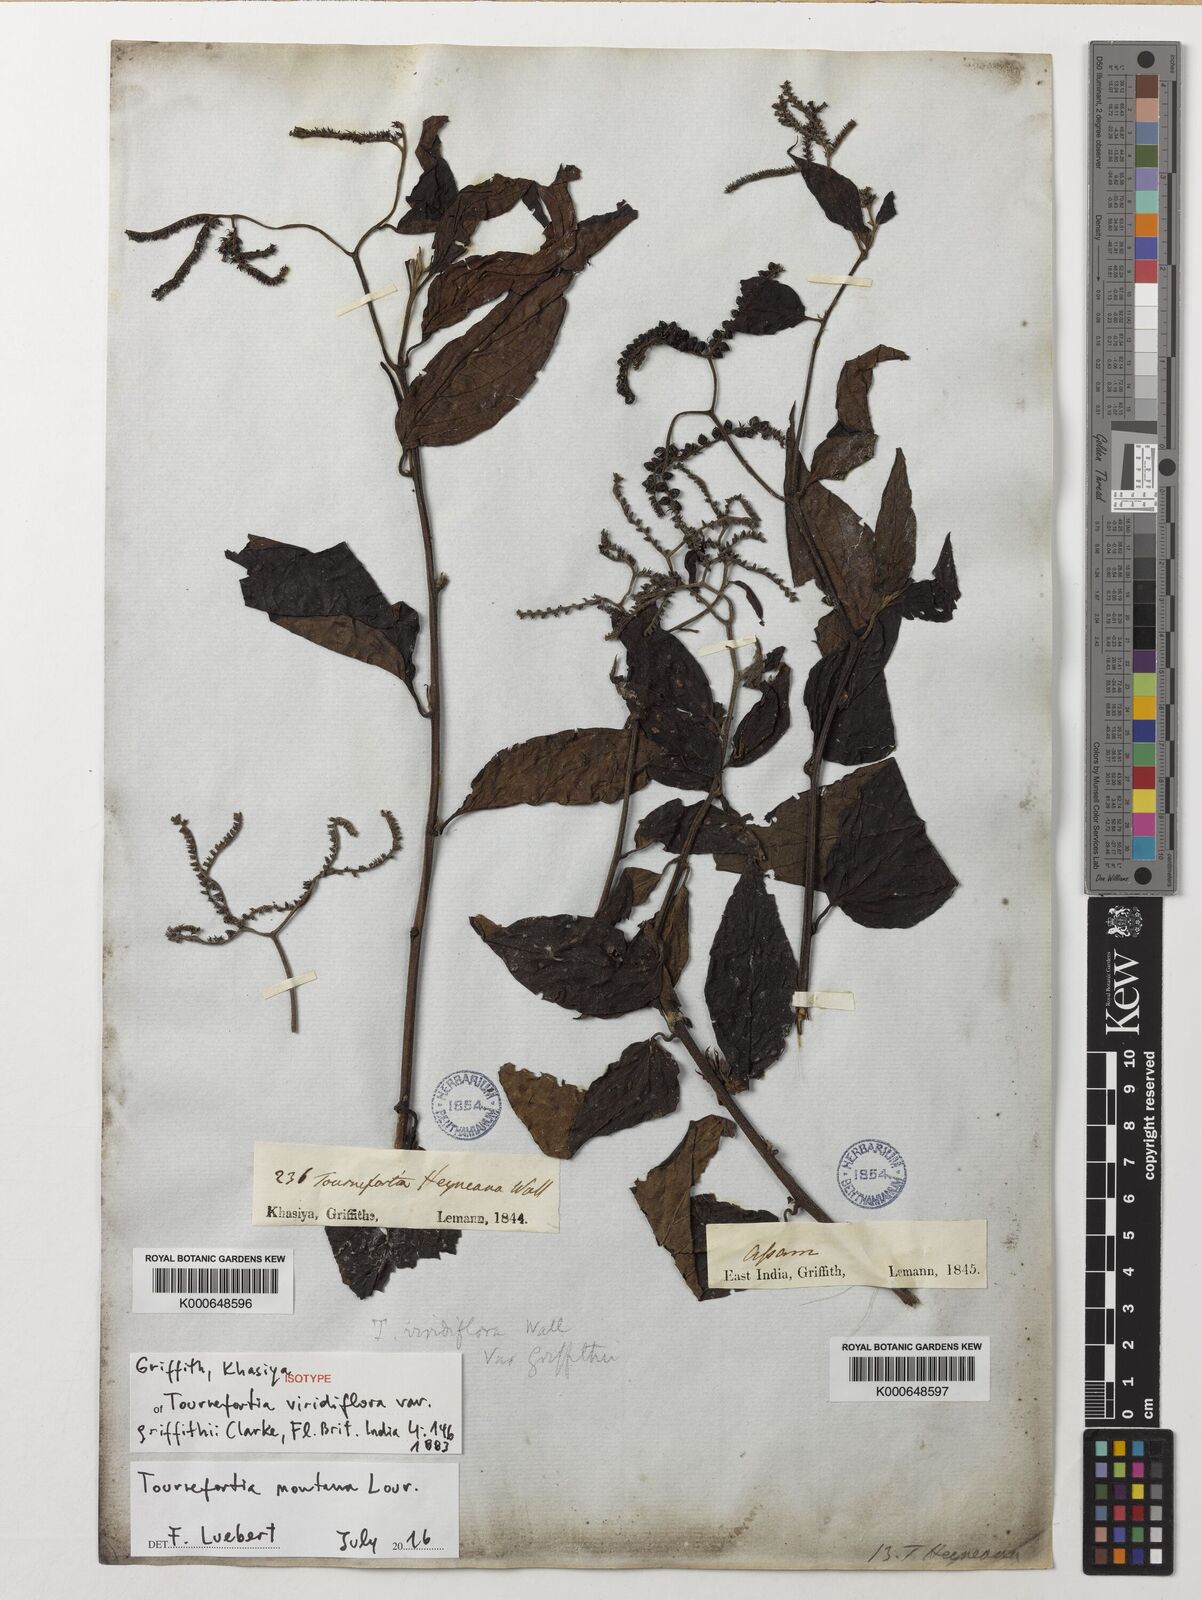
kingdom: Plantae
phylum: Tracheophyta
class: Magnoliopsida
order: Boraginales
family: Heliotropiaceae
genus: Tournefortia
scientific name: Tournefortia montana
